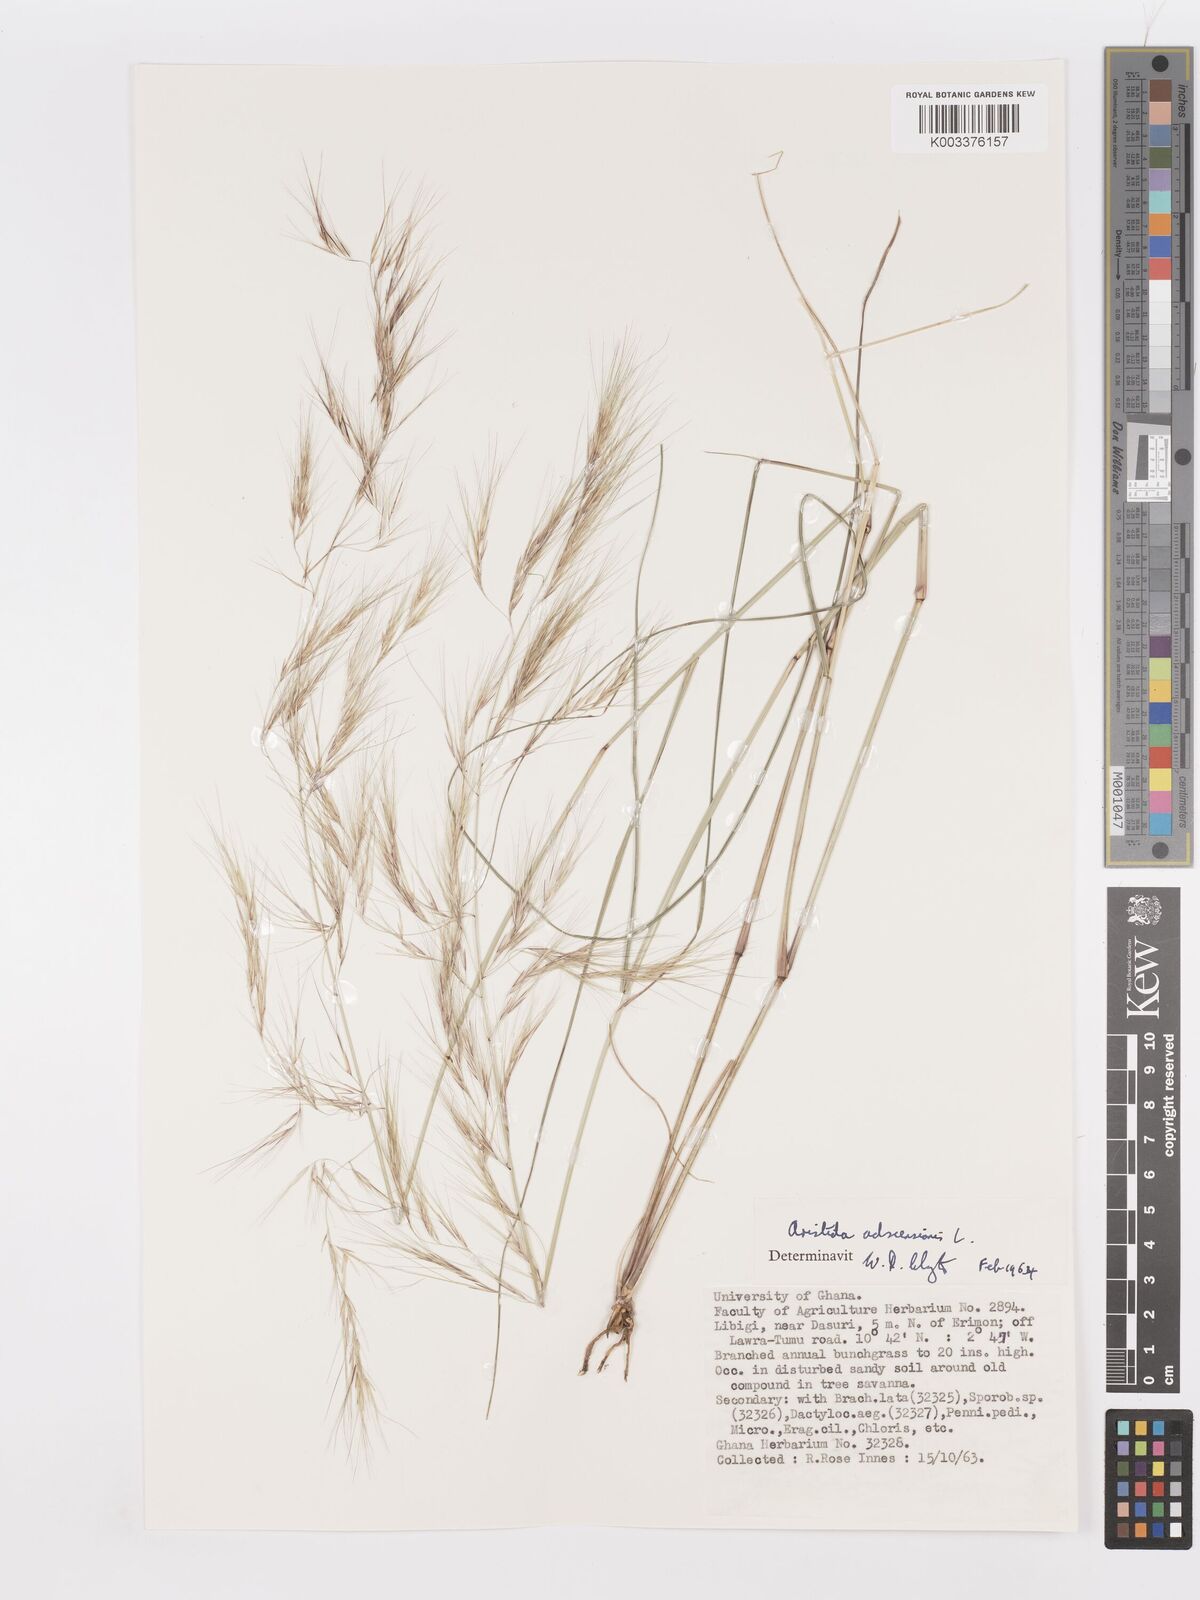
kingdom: Plantae
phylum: Tracheophyta
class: Liliopsida
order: Poales
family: Poaceae
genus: Aristida
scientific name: Aristida adscensionis
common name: Sixweeks threeawn
